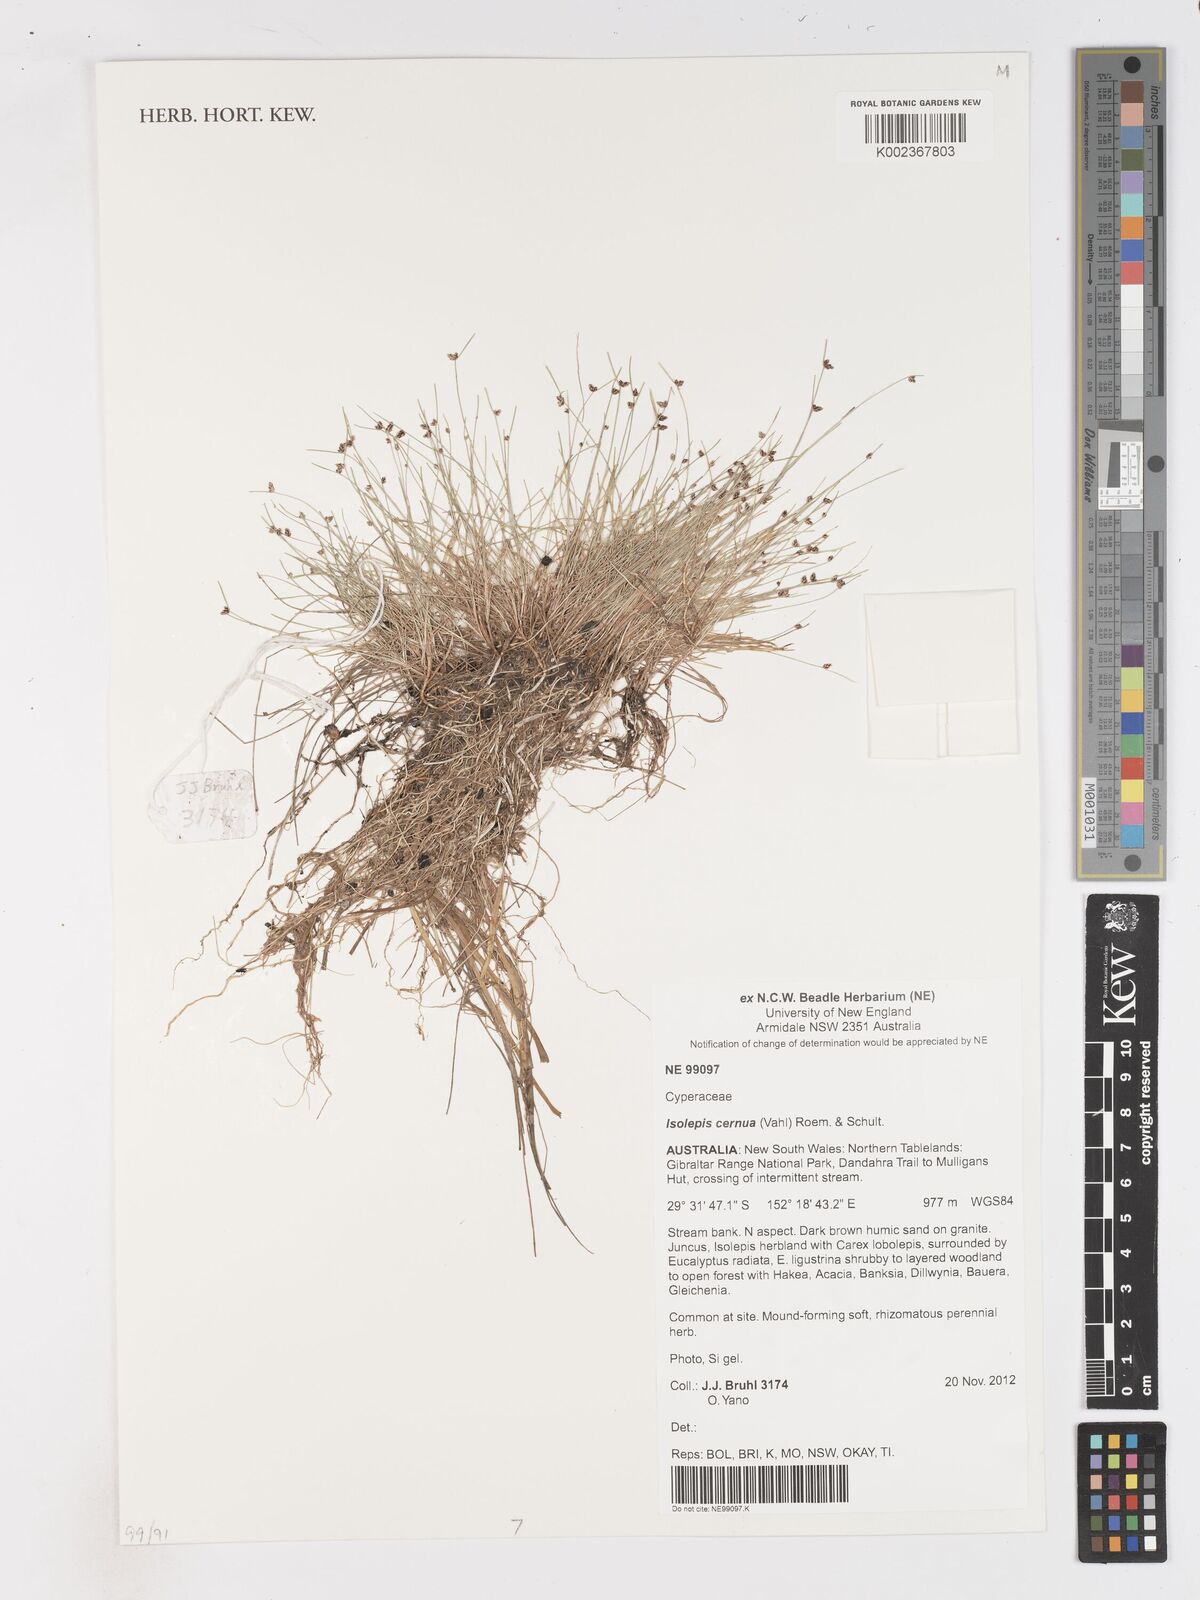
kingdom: Plantae
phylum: Tracheophyta
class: Liliopsida
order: Poales
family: Cyperaceae
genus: Isolepis
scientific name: Isolepis cernua
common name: Slender club-rush
